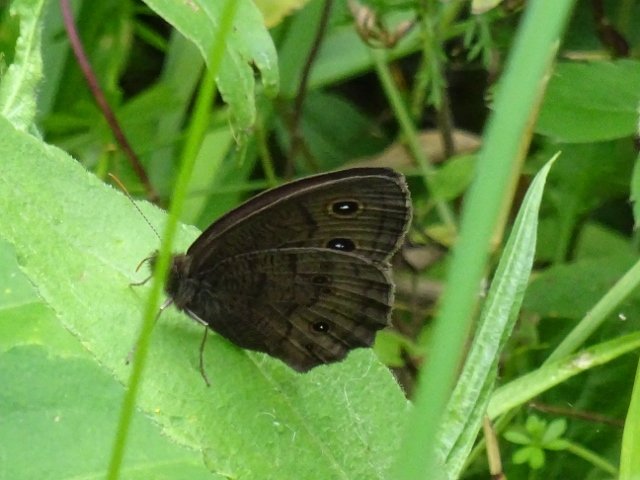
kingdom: Animalia
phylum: Arthropoda
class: Insecta
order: Lepidoptera
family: Nymphalidae
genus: Cercyonis
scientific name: Cercyonis pegala
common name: Common Wood-Nymph
